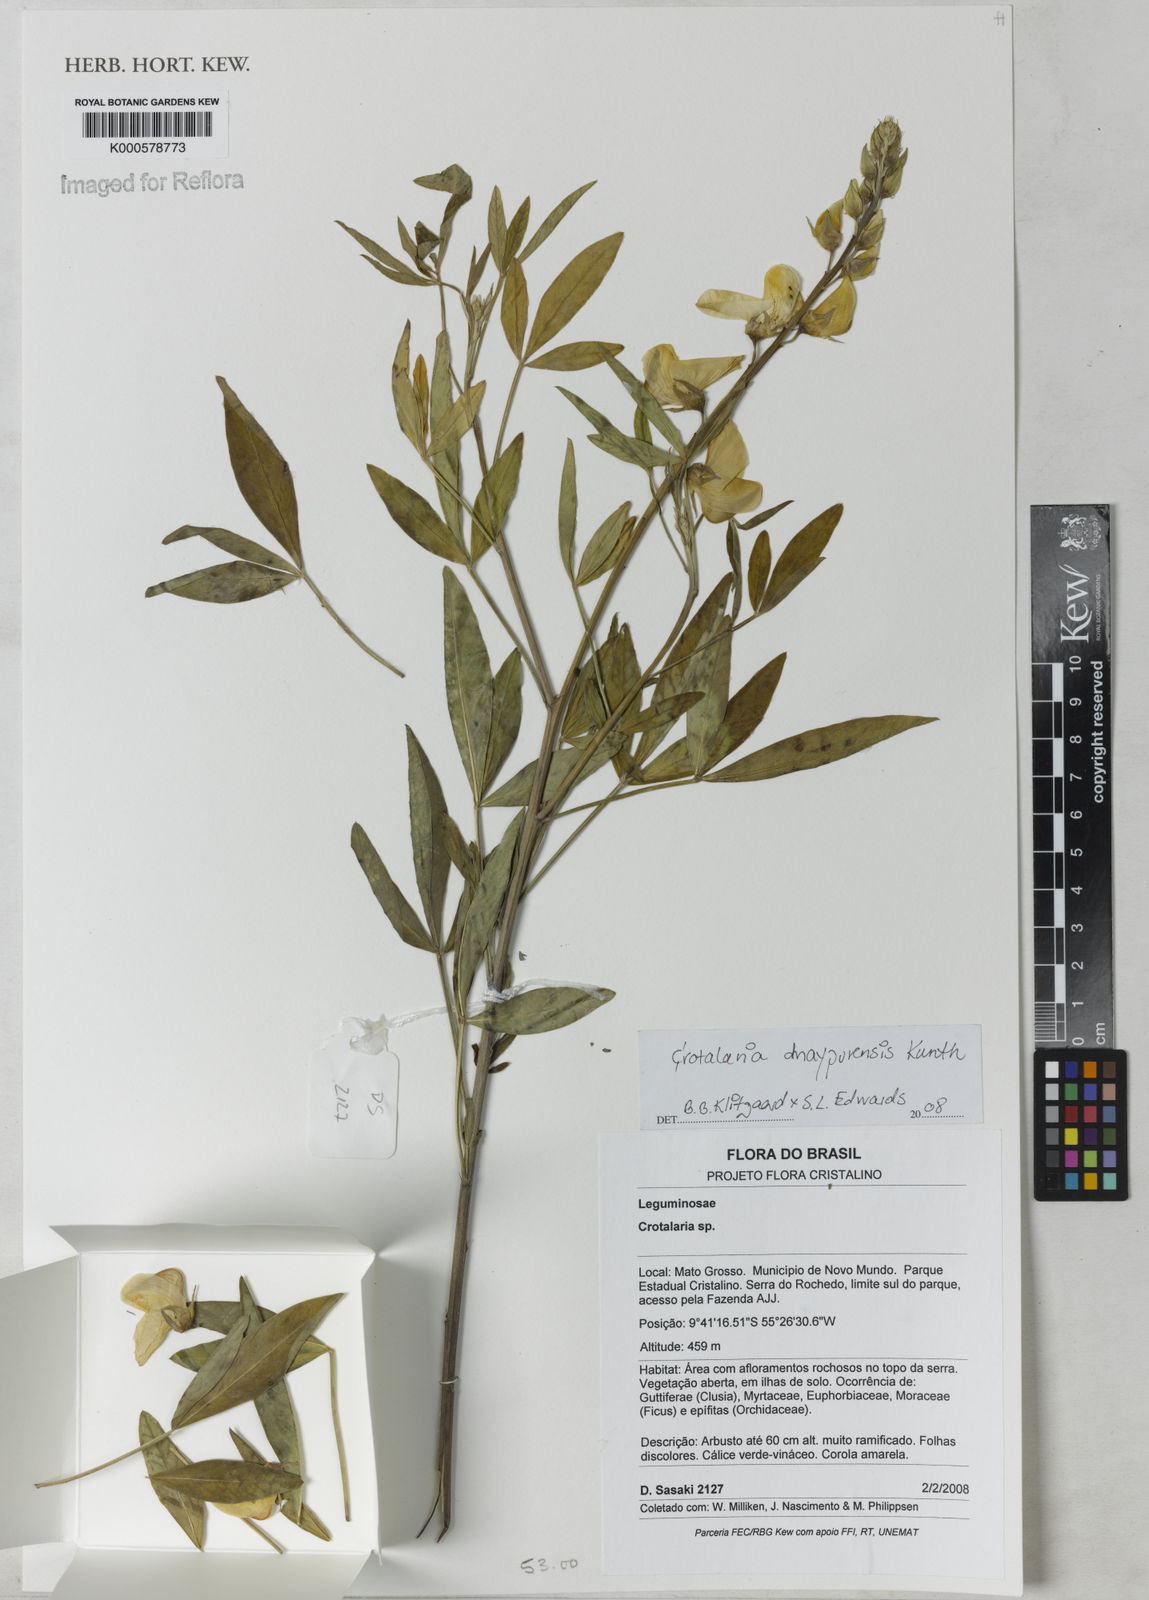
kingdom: Plantae
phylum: Tracheophyta
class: Magnoliopsida
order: Fabales
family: Fabaceae
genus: Crotalaria
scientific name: Crotalaria maypurensis
